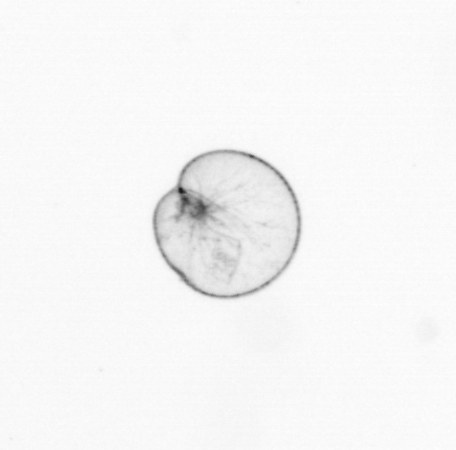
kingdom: Chromista
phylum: Myzozoa
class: Dinophyceae
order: Noctilucales
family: Noctilucaceae
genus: Noctiluca
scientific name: Noctiluca scintillans
